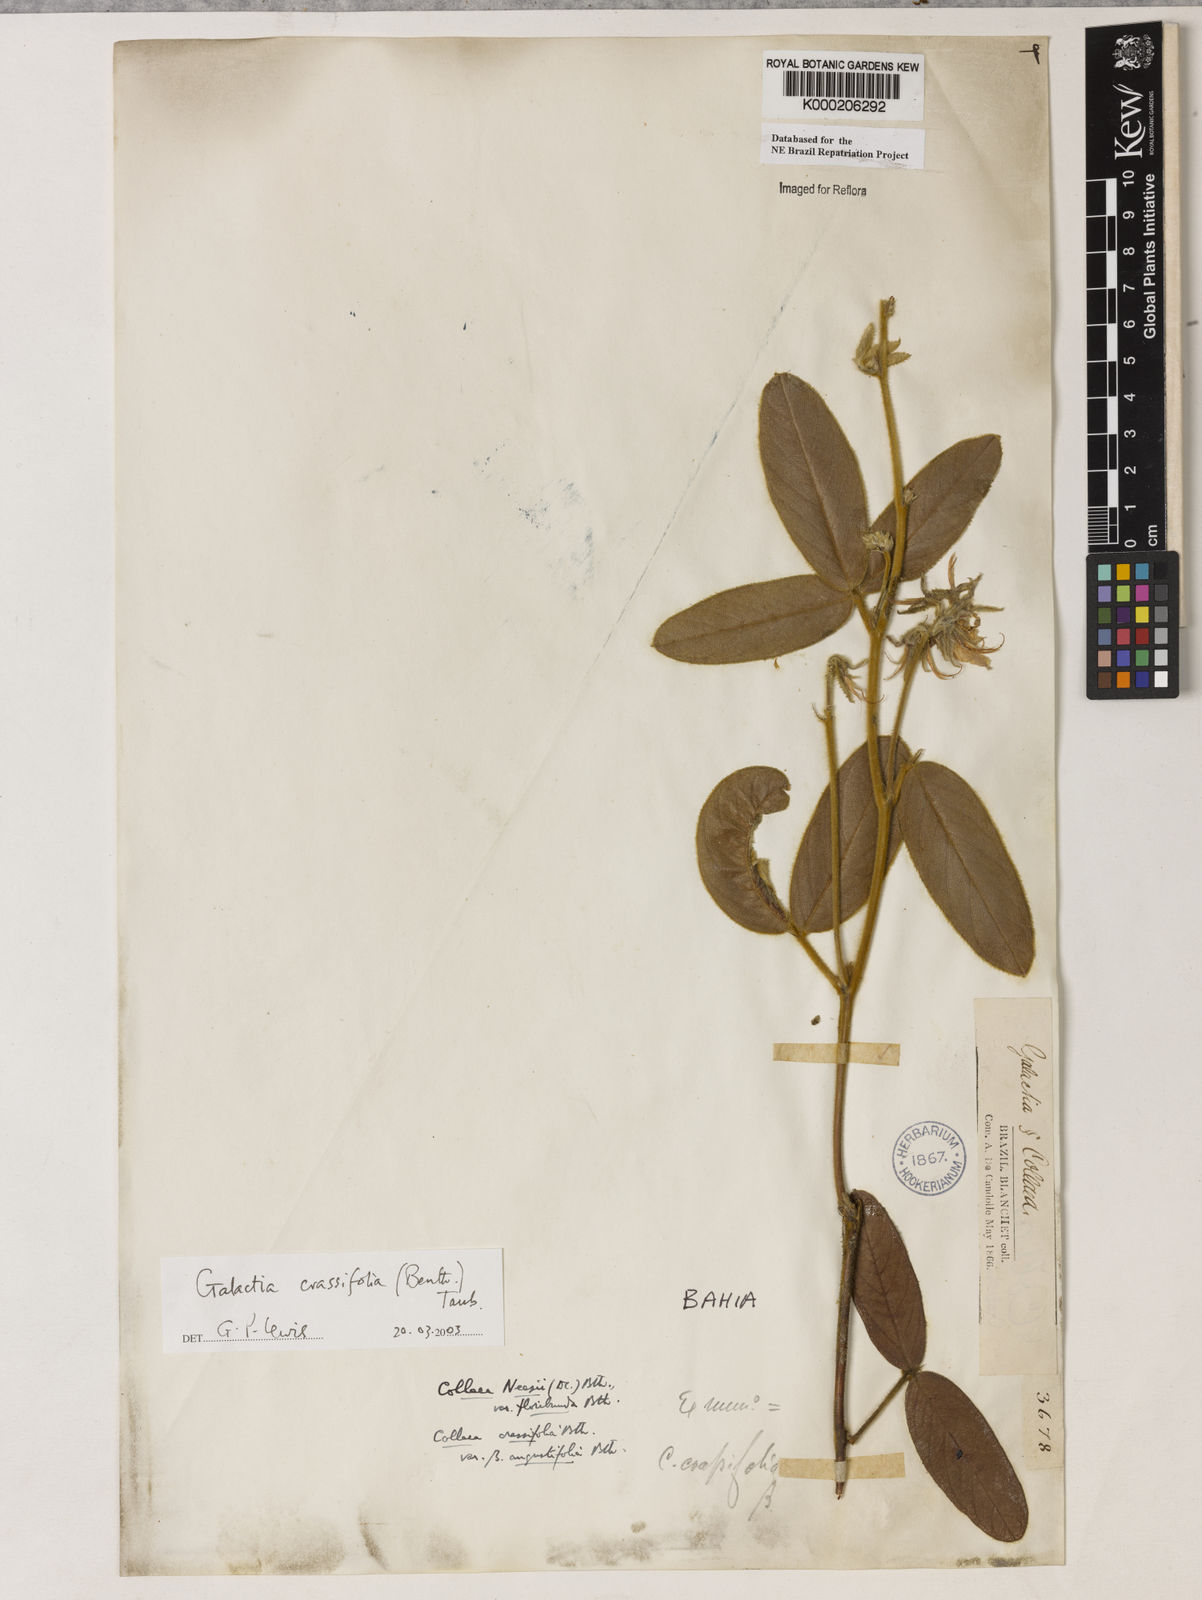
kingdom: Plantae
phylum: Tracheophyta
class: Magnoliopsida
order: Fabales
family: Fabaceae
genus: Galactia
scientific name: Galactia
